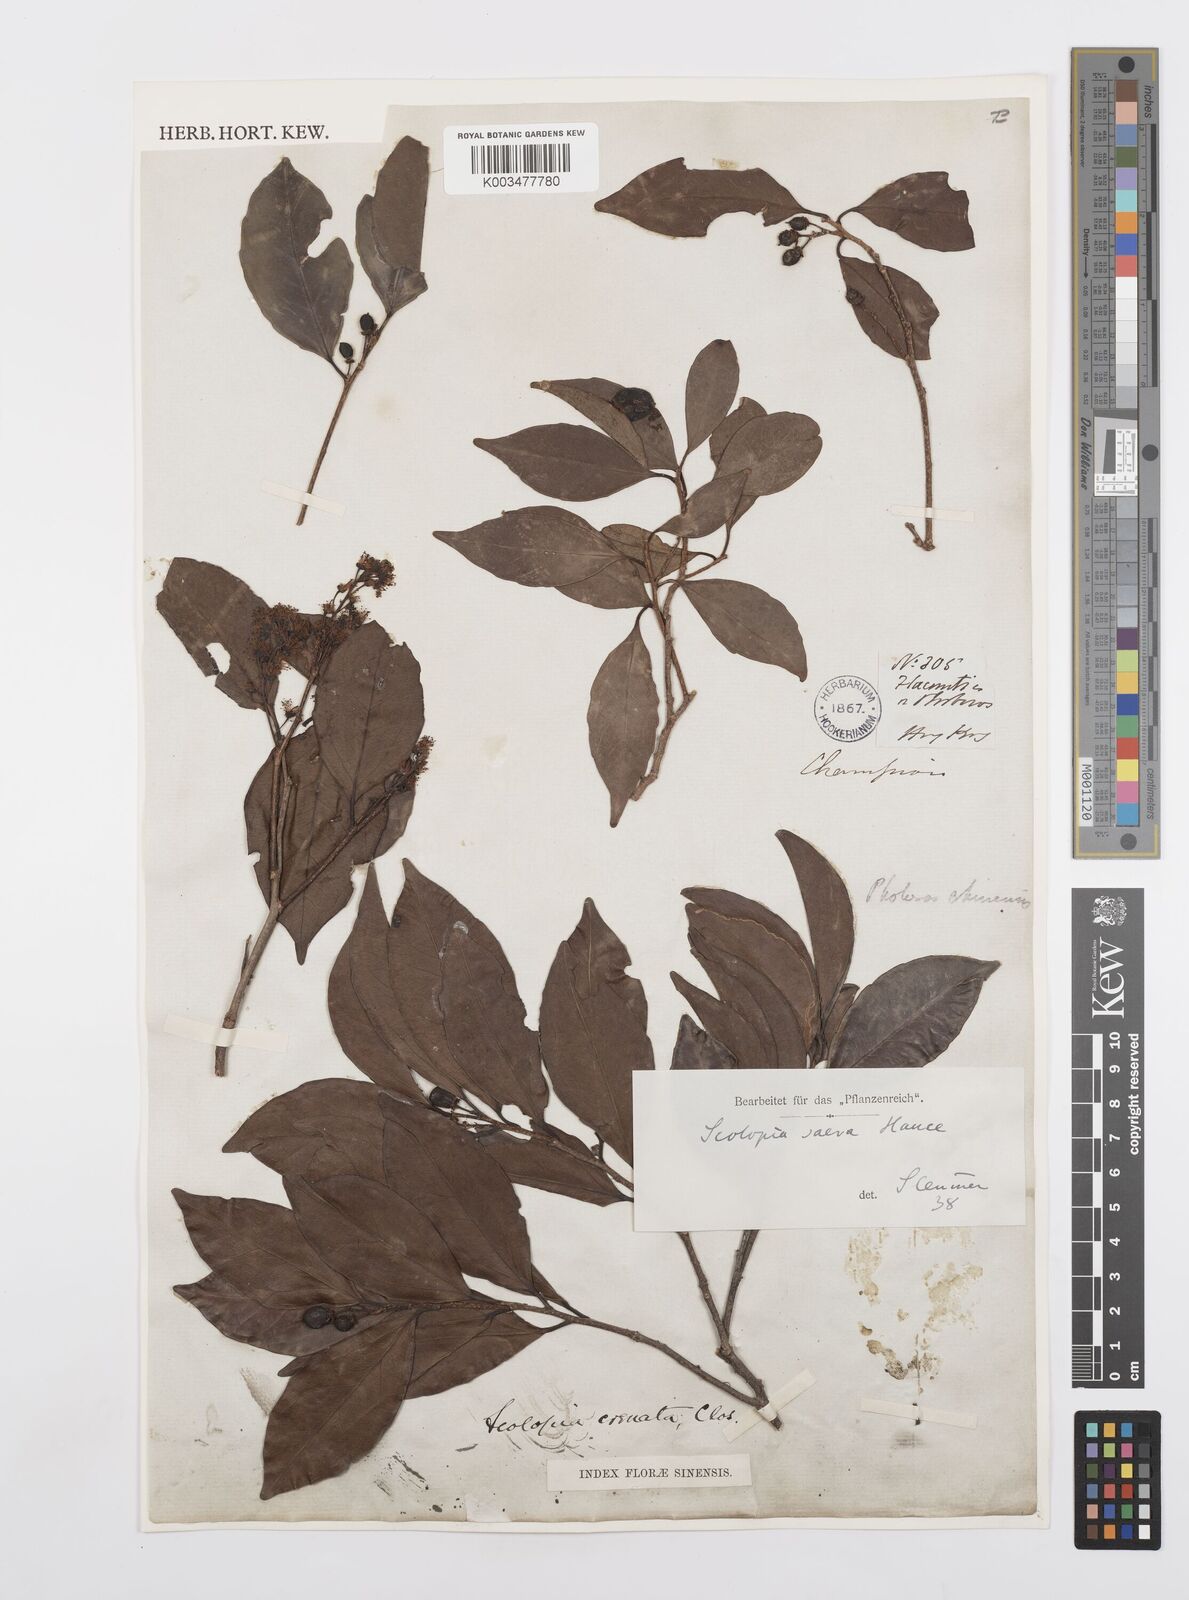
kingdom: Plantae
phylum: Tracheophyta
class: Magnoliopsida
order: Malpighiales
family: Salicaceae
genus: Scolopia
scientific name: Scolopia saeva
